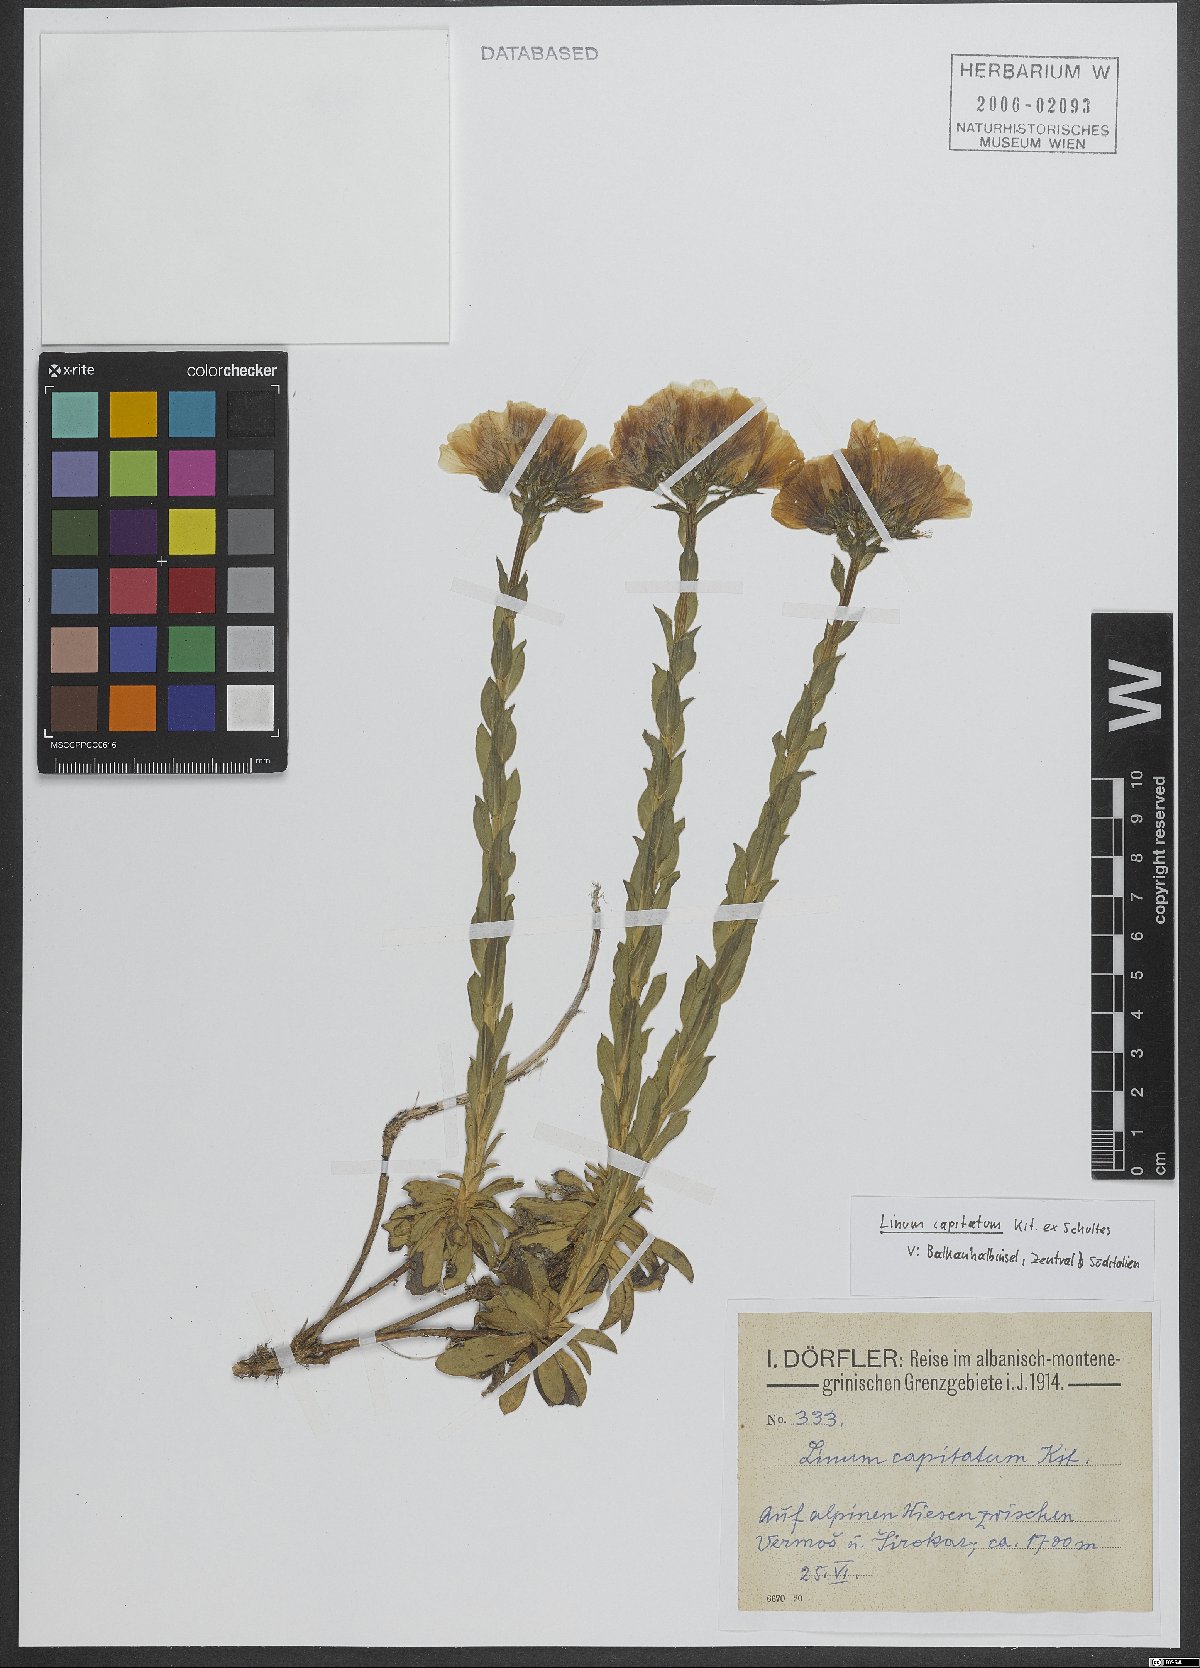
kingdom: Plantae
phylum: Tracheophyta
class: Magnoliopsida
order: Malpighiales
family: Linaceae
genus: Linum
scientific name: Linum capitatum
